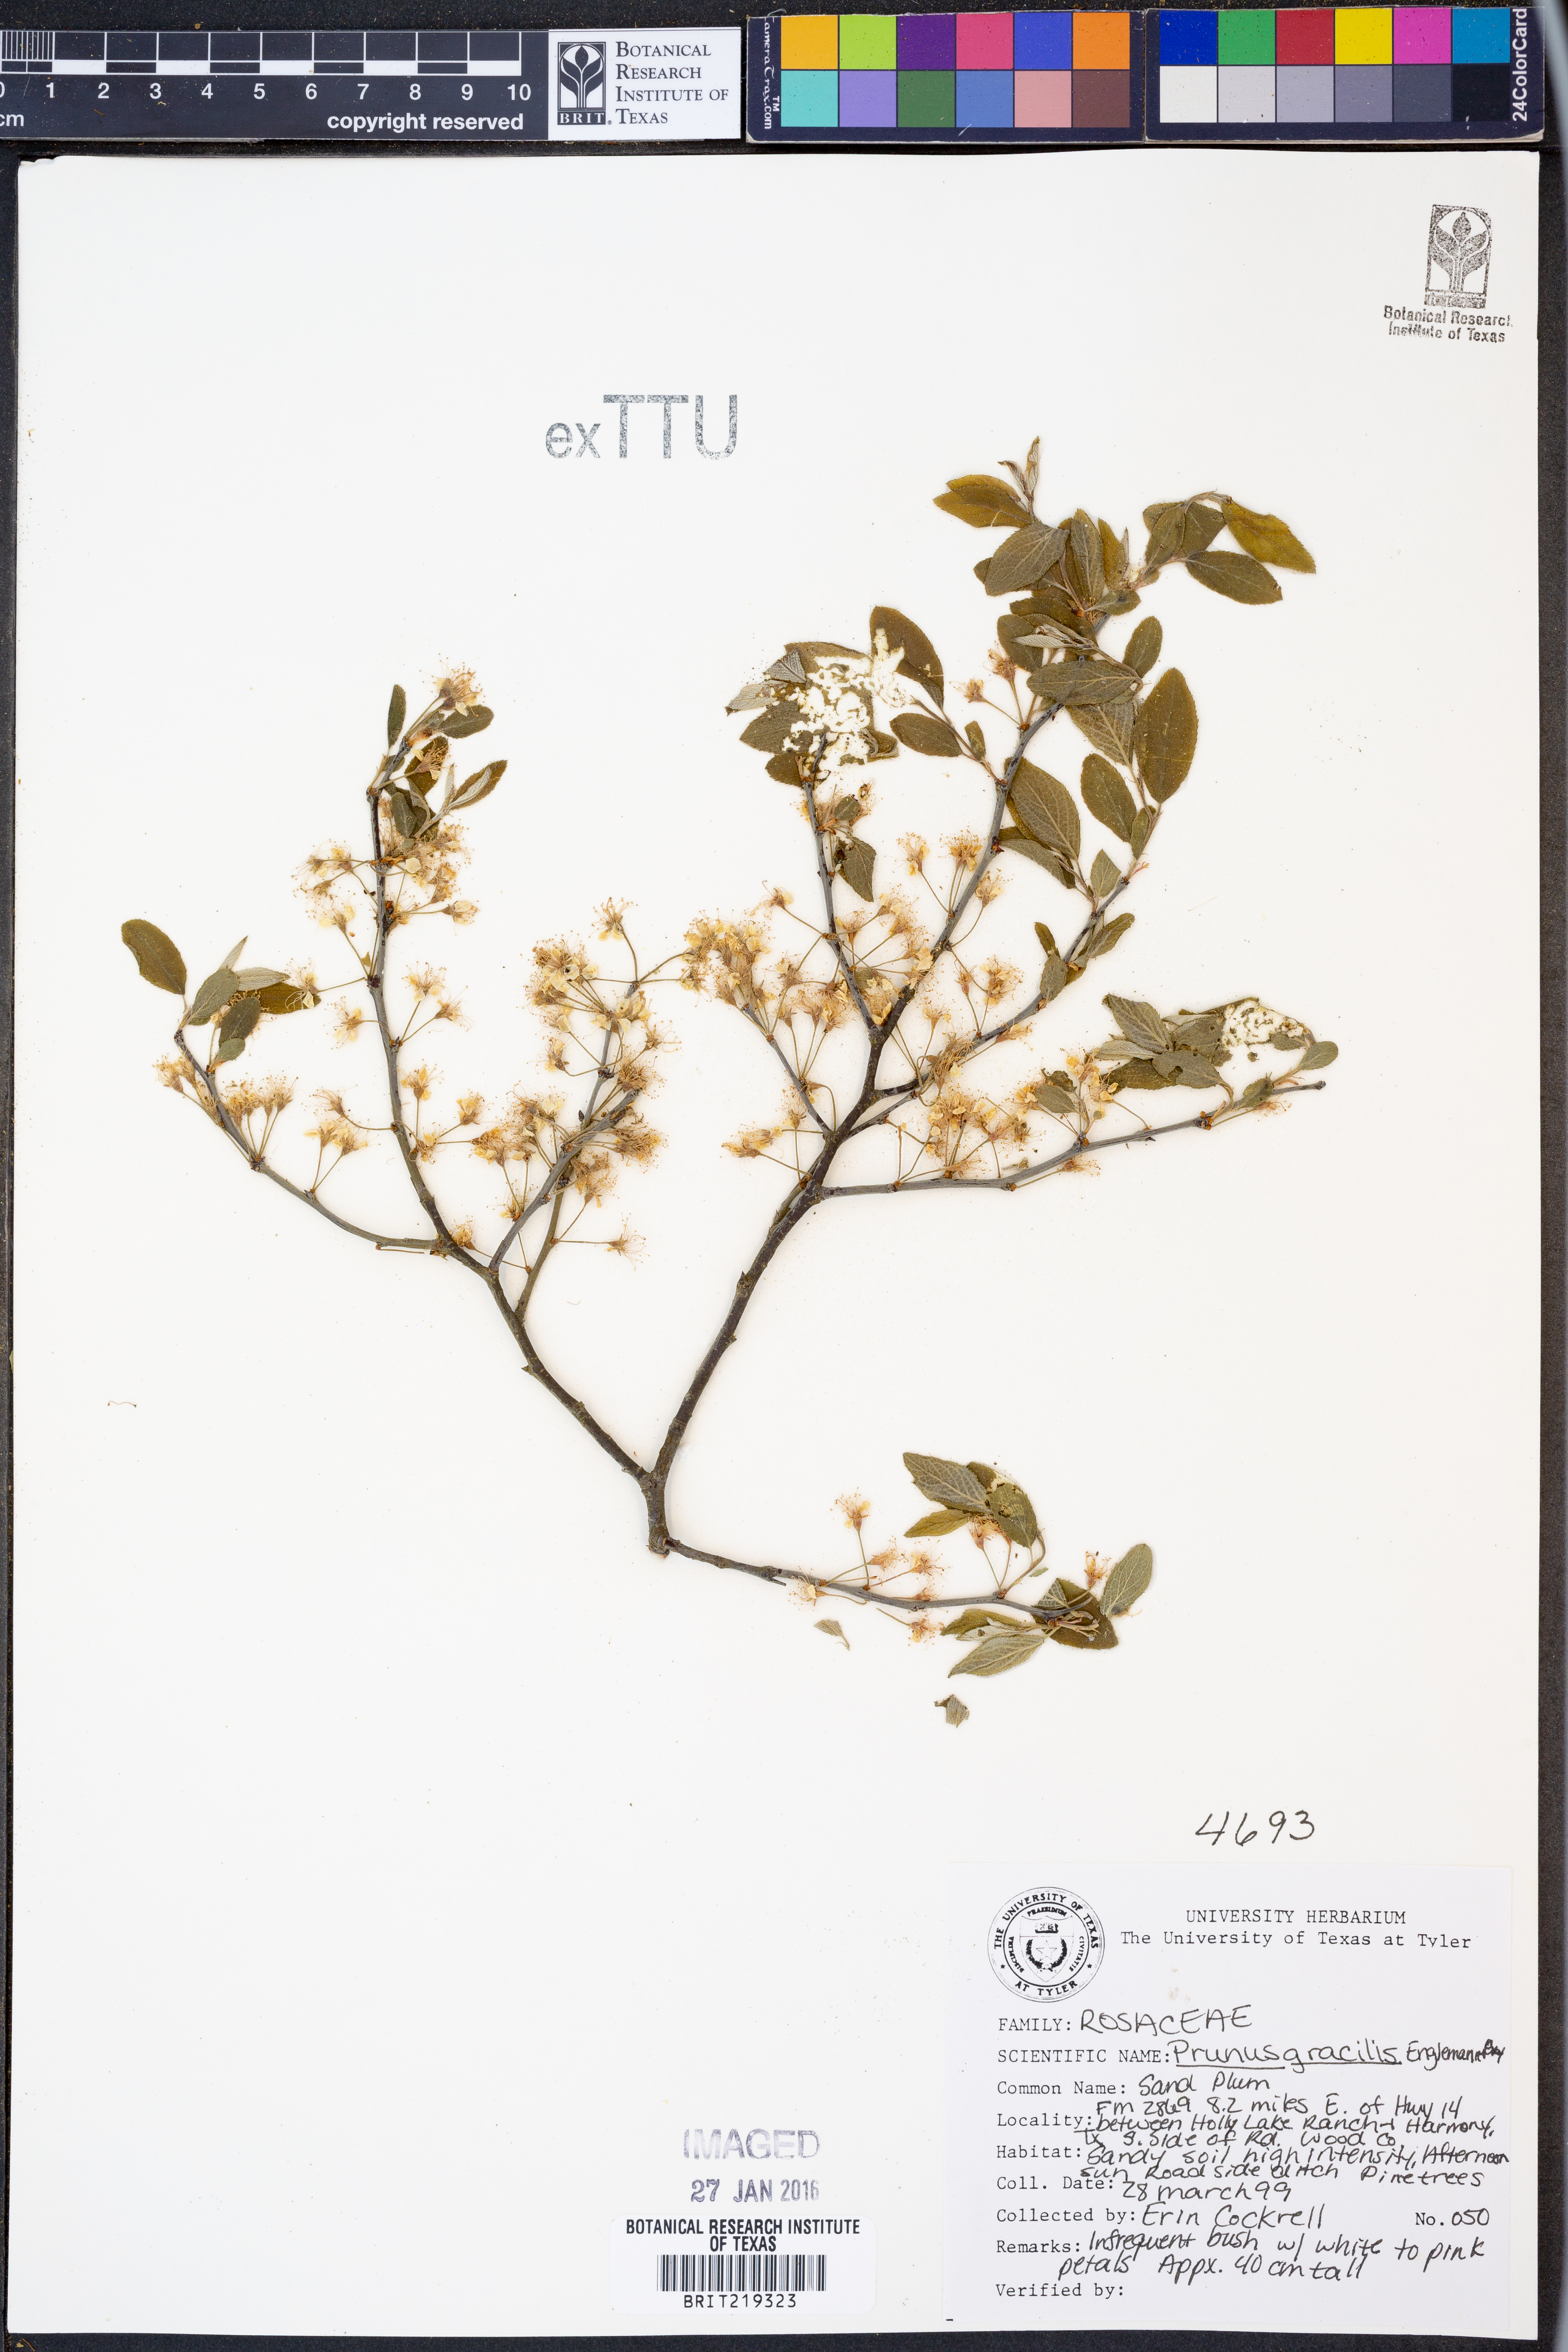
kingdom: Plantae
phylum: Tracheophyta
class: Magnoliopsida
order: Rosales
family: Rosaceae
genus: Prunus
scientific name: Prunus gracilis
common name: Oklahoma plum
